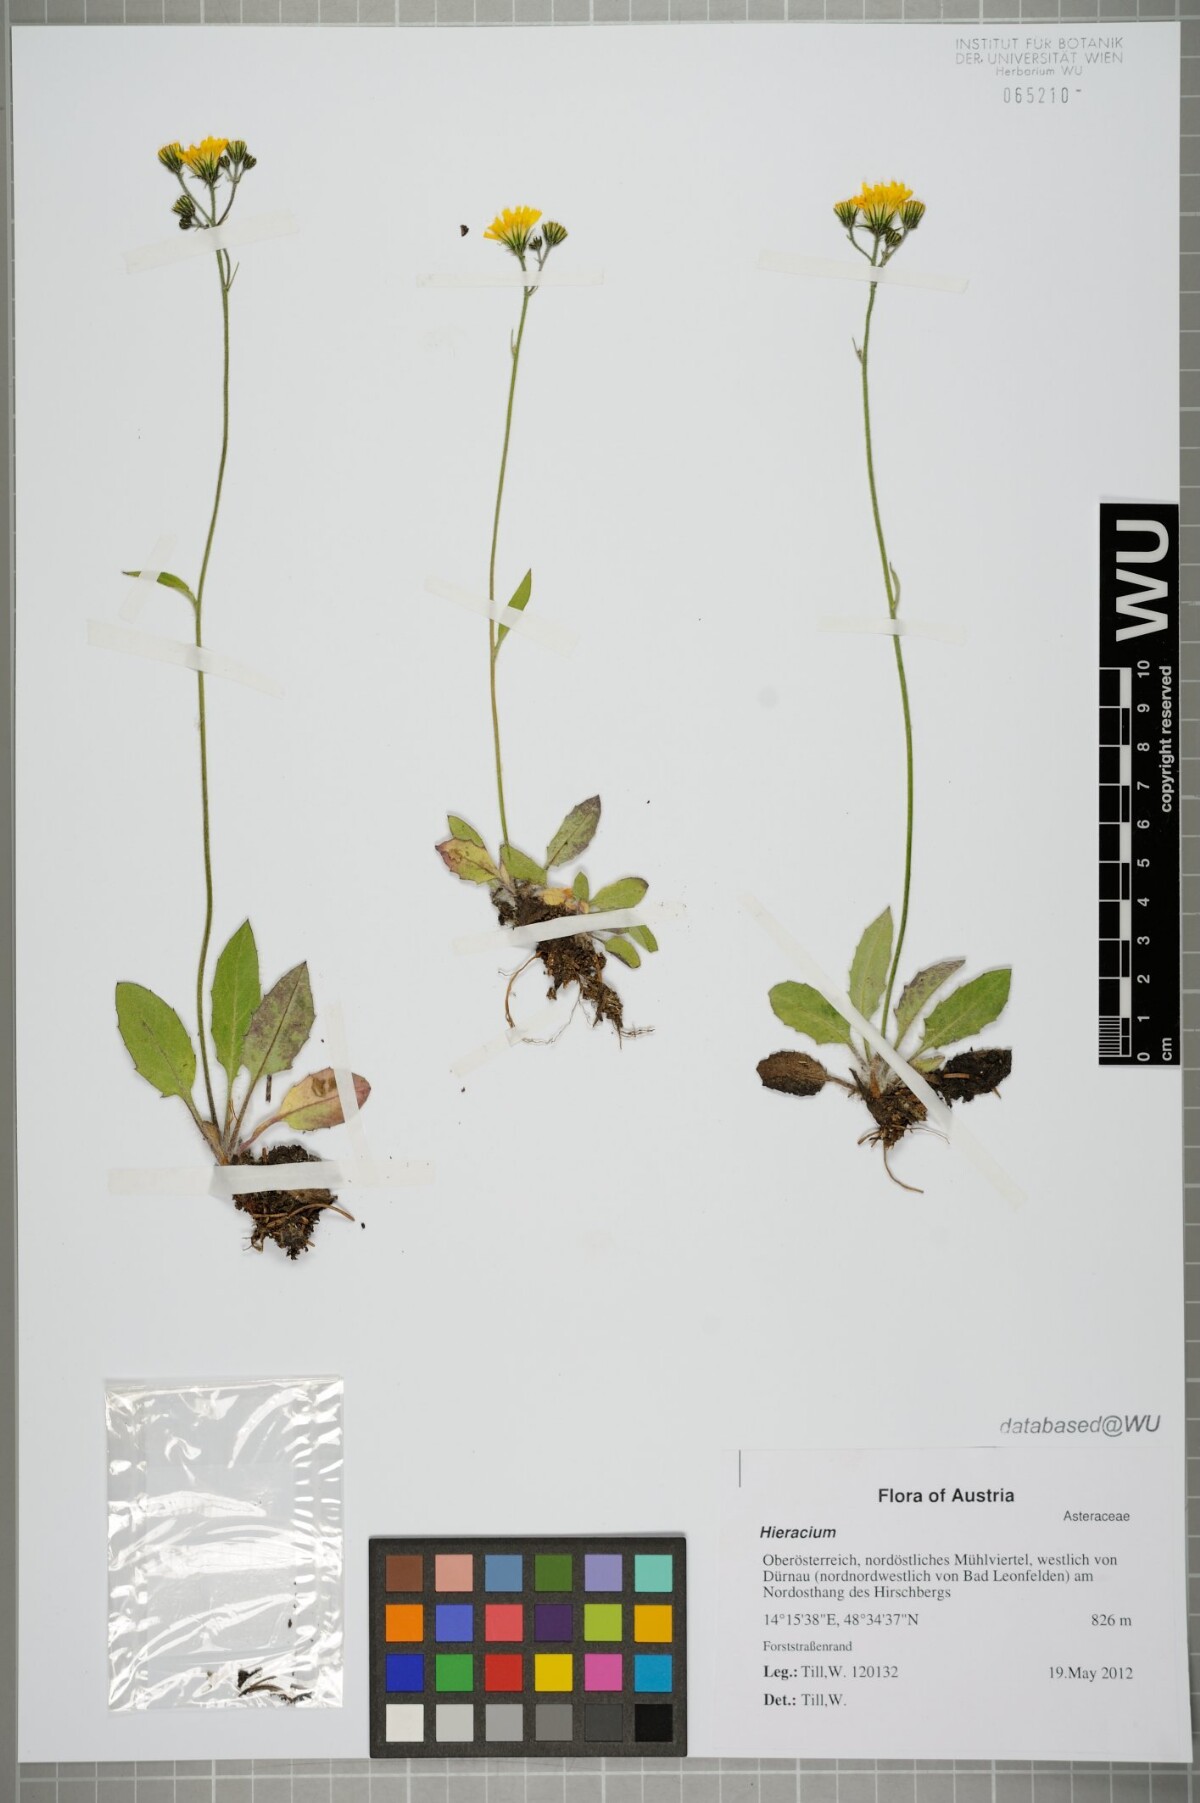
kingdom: Plantae
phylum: Tracheophyta
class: Magnoliopsida
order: Asterales
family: Asteraceae
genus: Hieracium
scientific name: Hieracium
